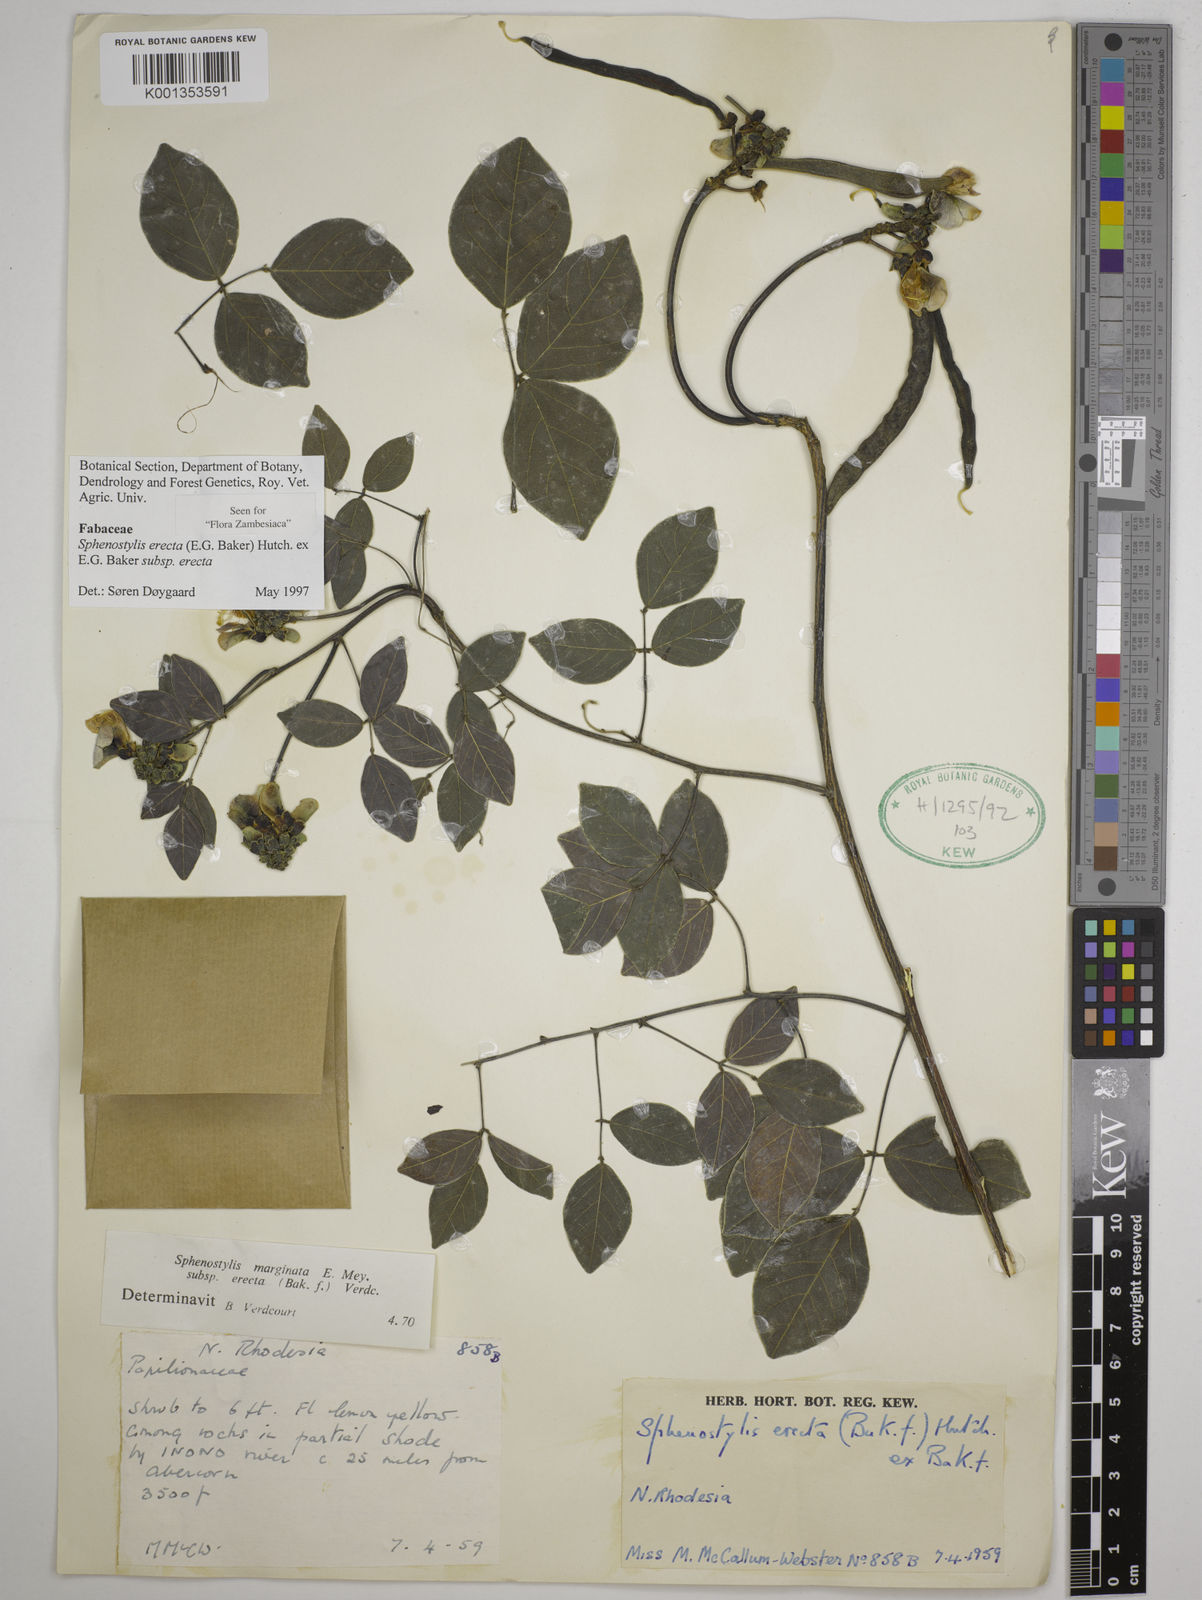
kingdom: Plantae
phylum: Tracheophyta
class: Magnoliopsida
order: Fabales
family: Fabaceae
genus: Sphenostylis
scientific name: Sphenostylis erecta
